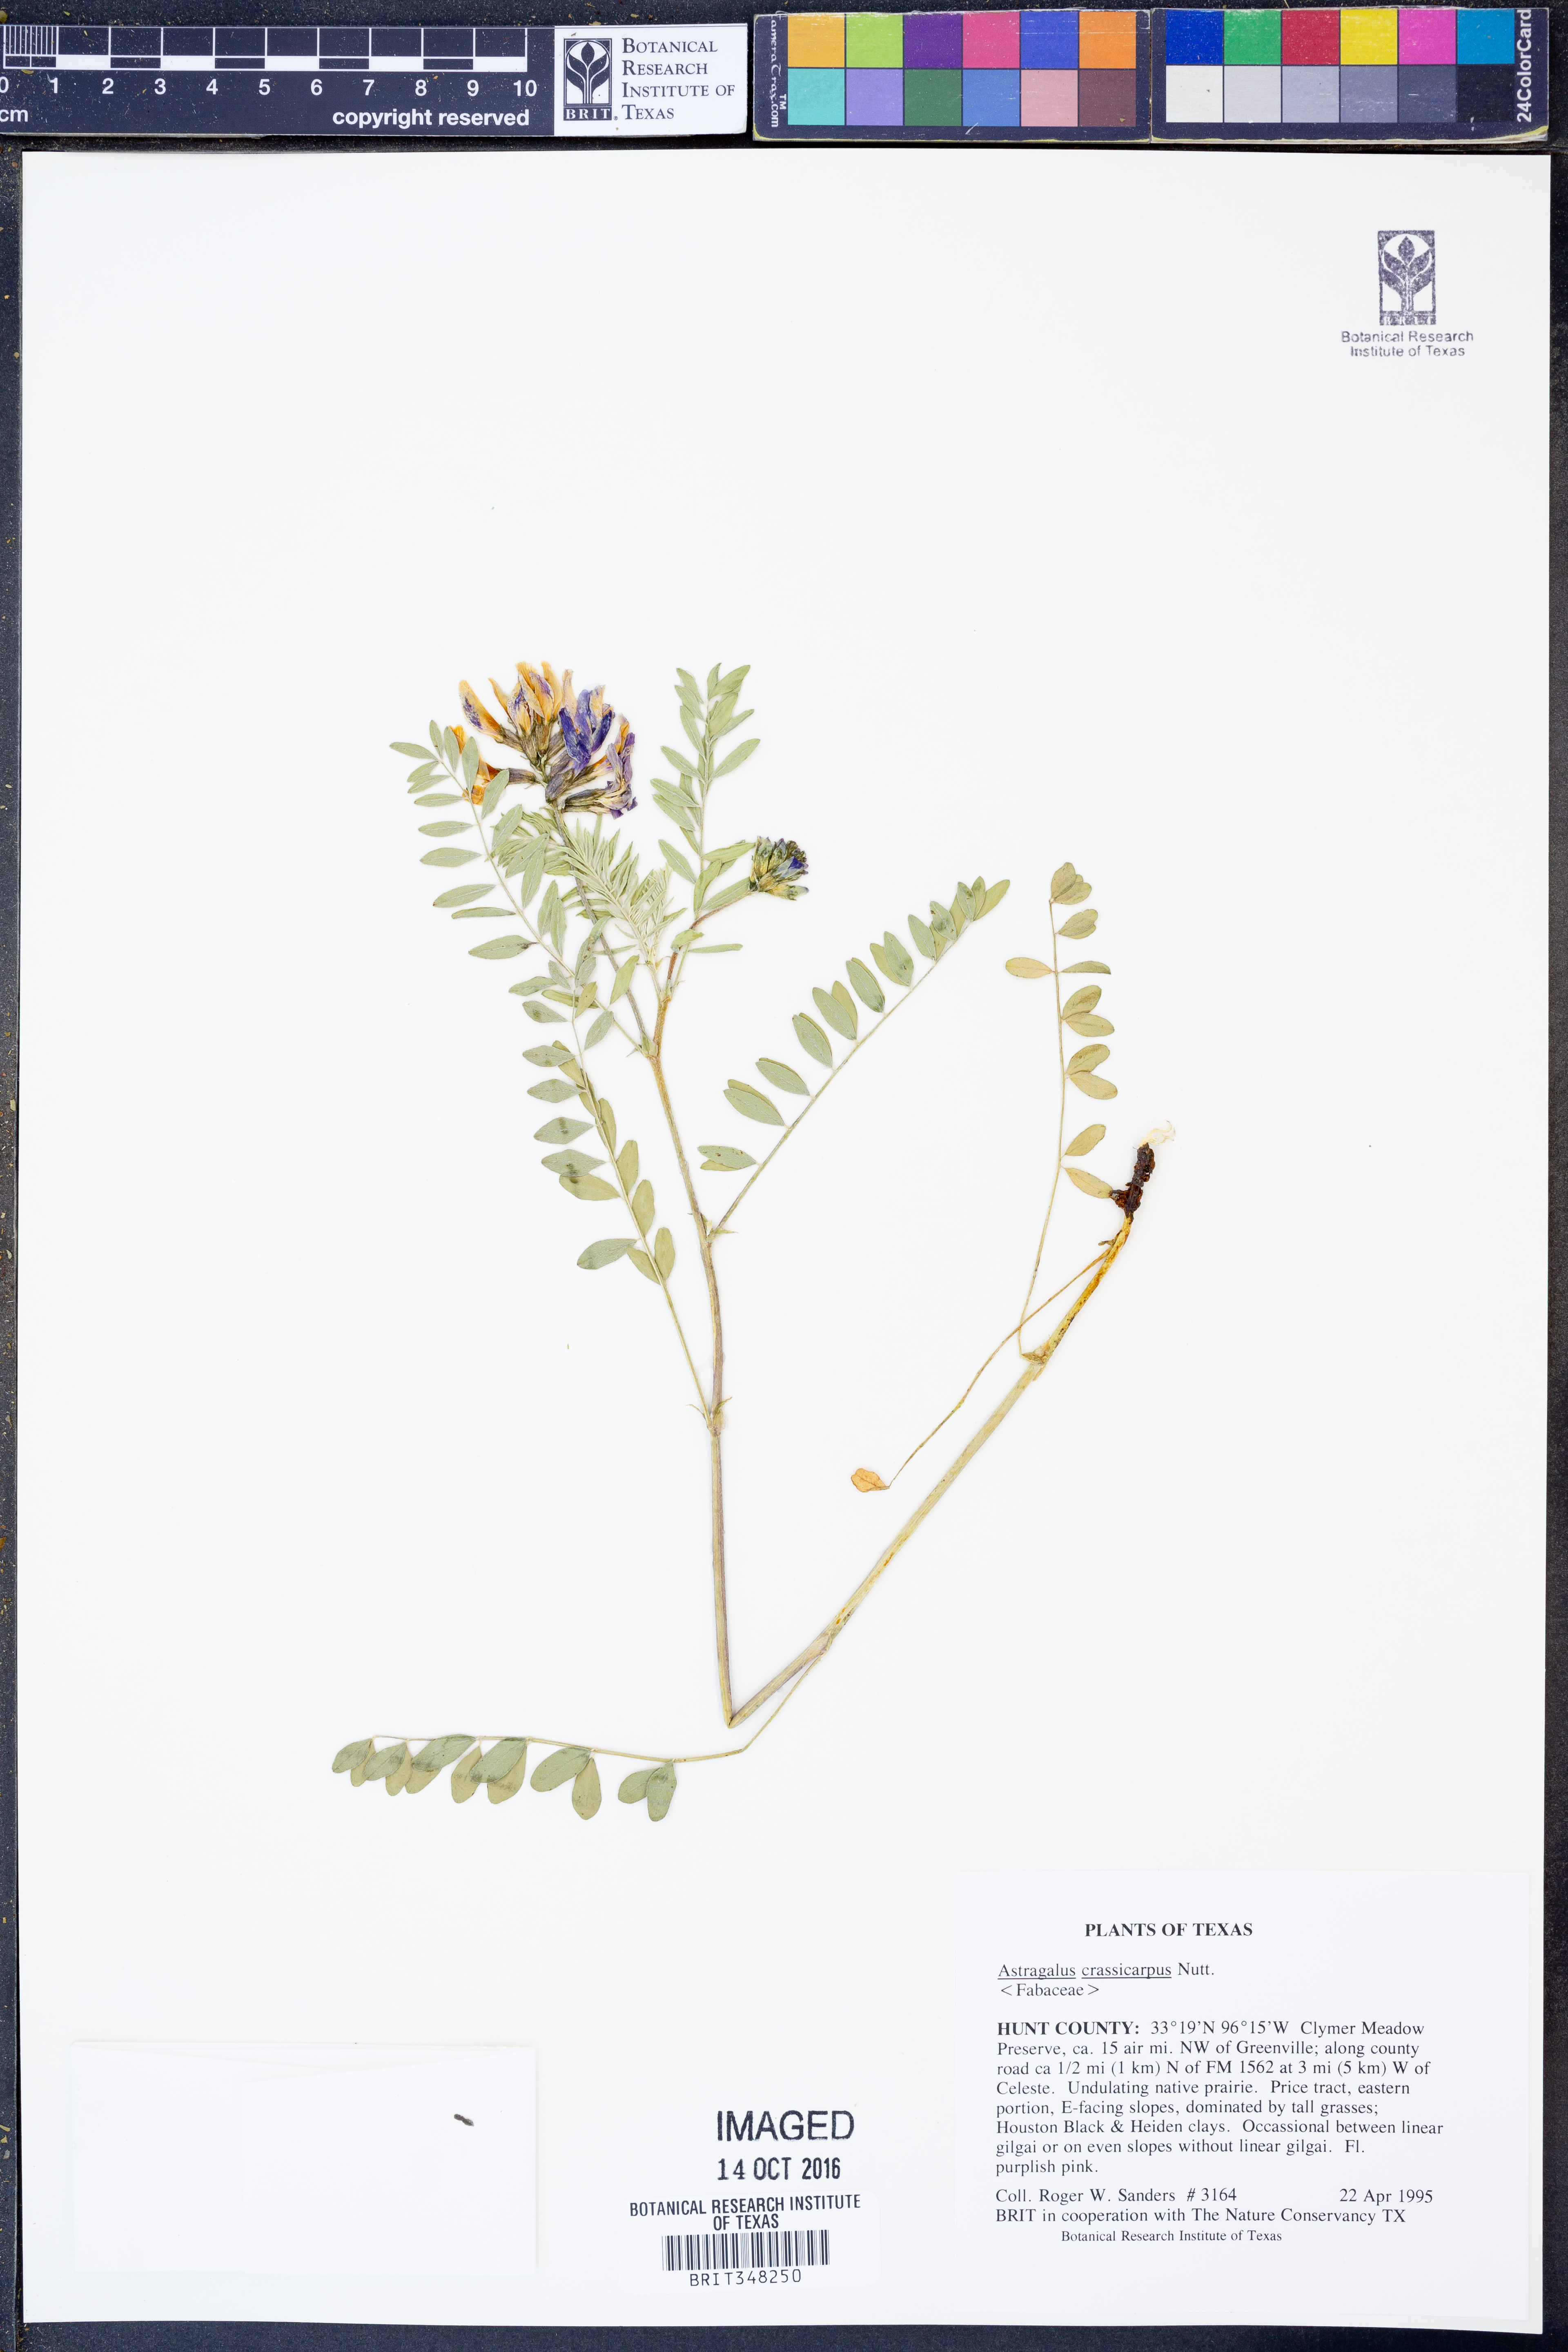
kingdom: Plantae
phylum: Tracheophyta
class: Magnoliopsida
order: Fabales
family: Fabaceae
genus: Astragalus
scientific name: Astragalus crassicarpus
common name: Ground-plum milk-vetch
